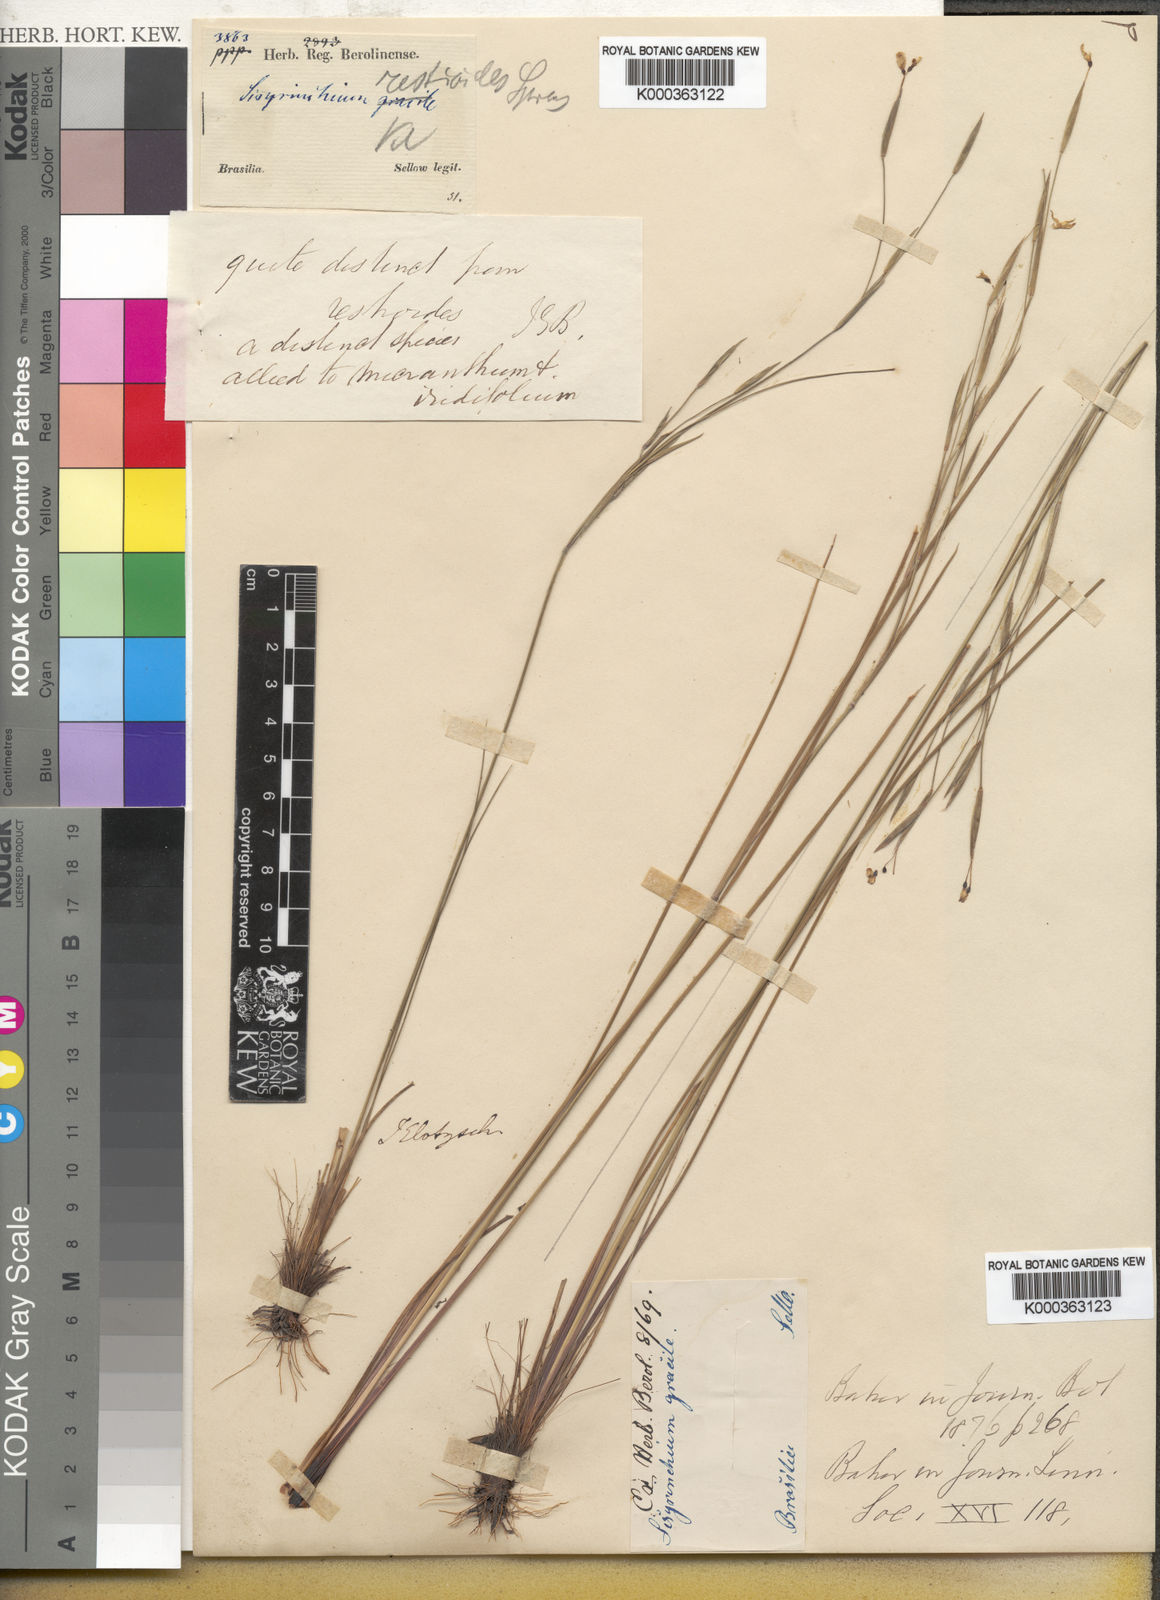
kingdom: Plantae
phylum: Tracheophyta
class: Liliopsida
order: Asparagales
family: Iridaceae
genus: Olsynium
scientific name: Olsynium scirpoideum
